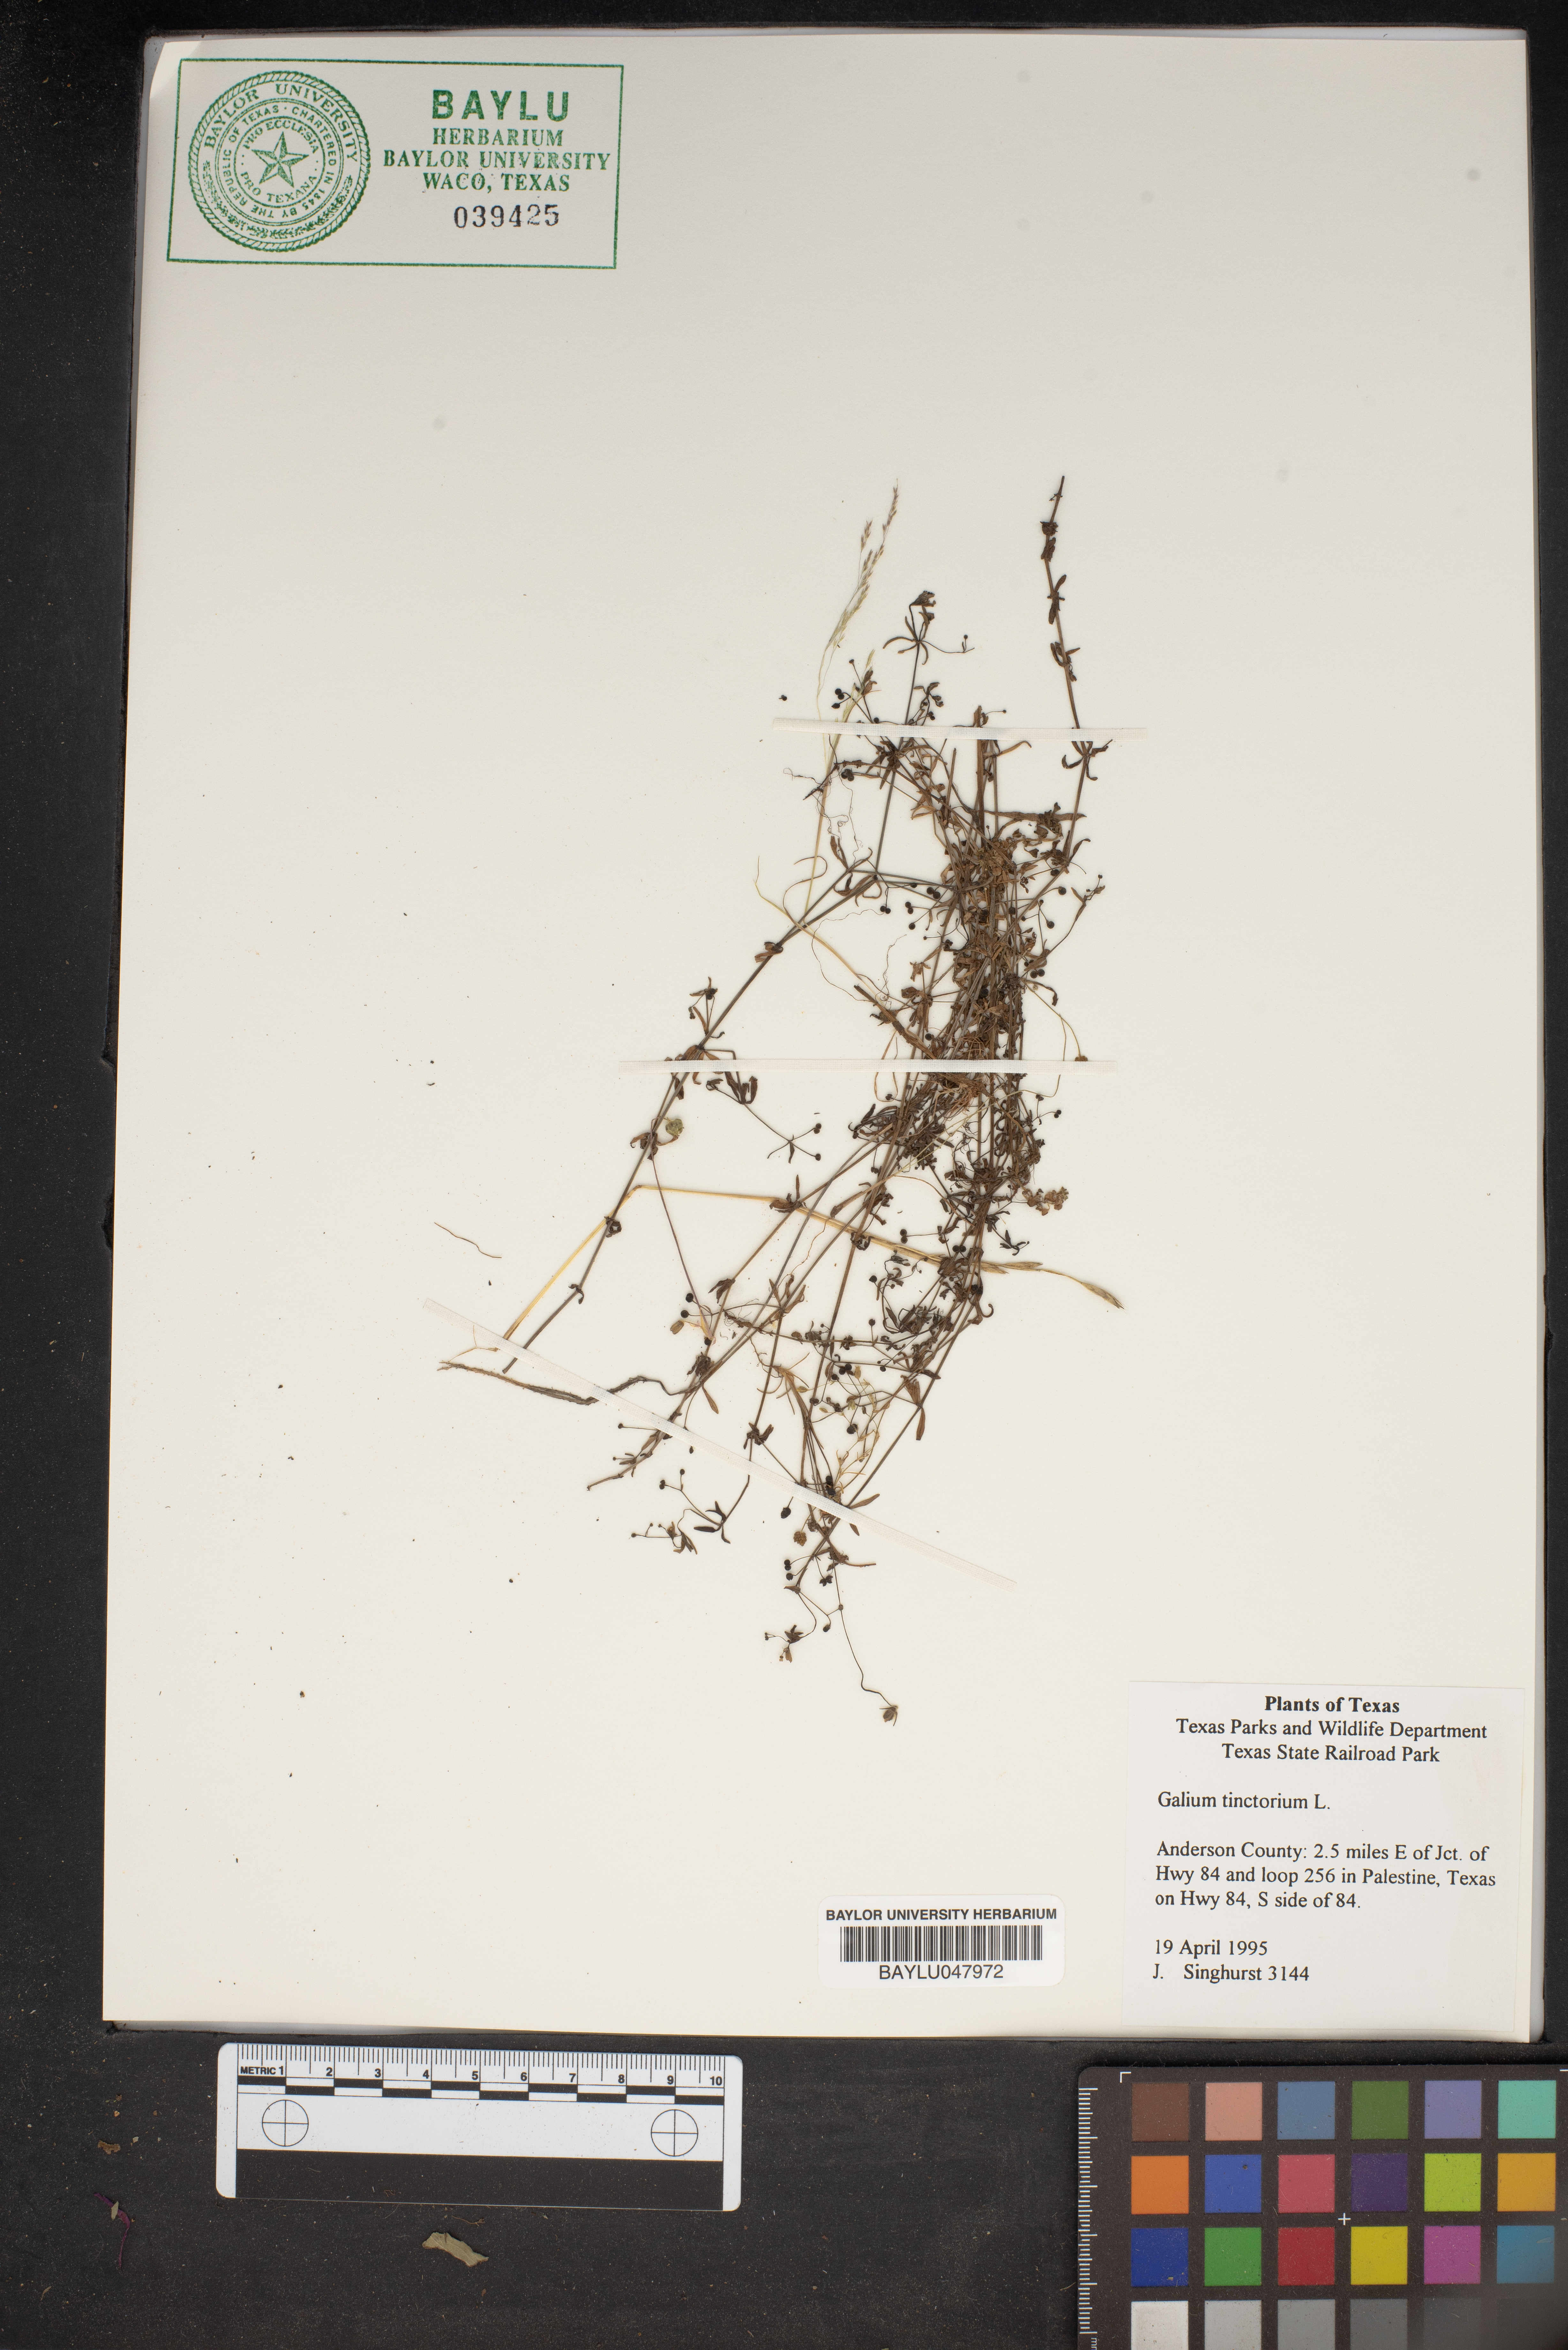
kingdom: Plantae
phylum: Tracheophyta
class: Magnoliopsida
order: Gentianales
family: Rubiaceae
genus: Asperula
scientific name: Asperula tinctoria
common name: Dyer's woodruff
